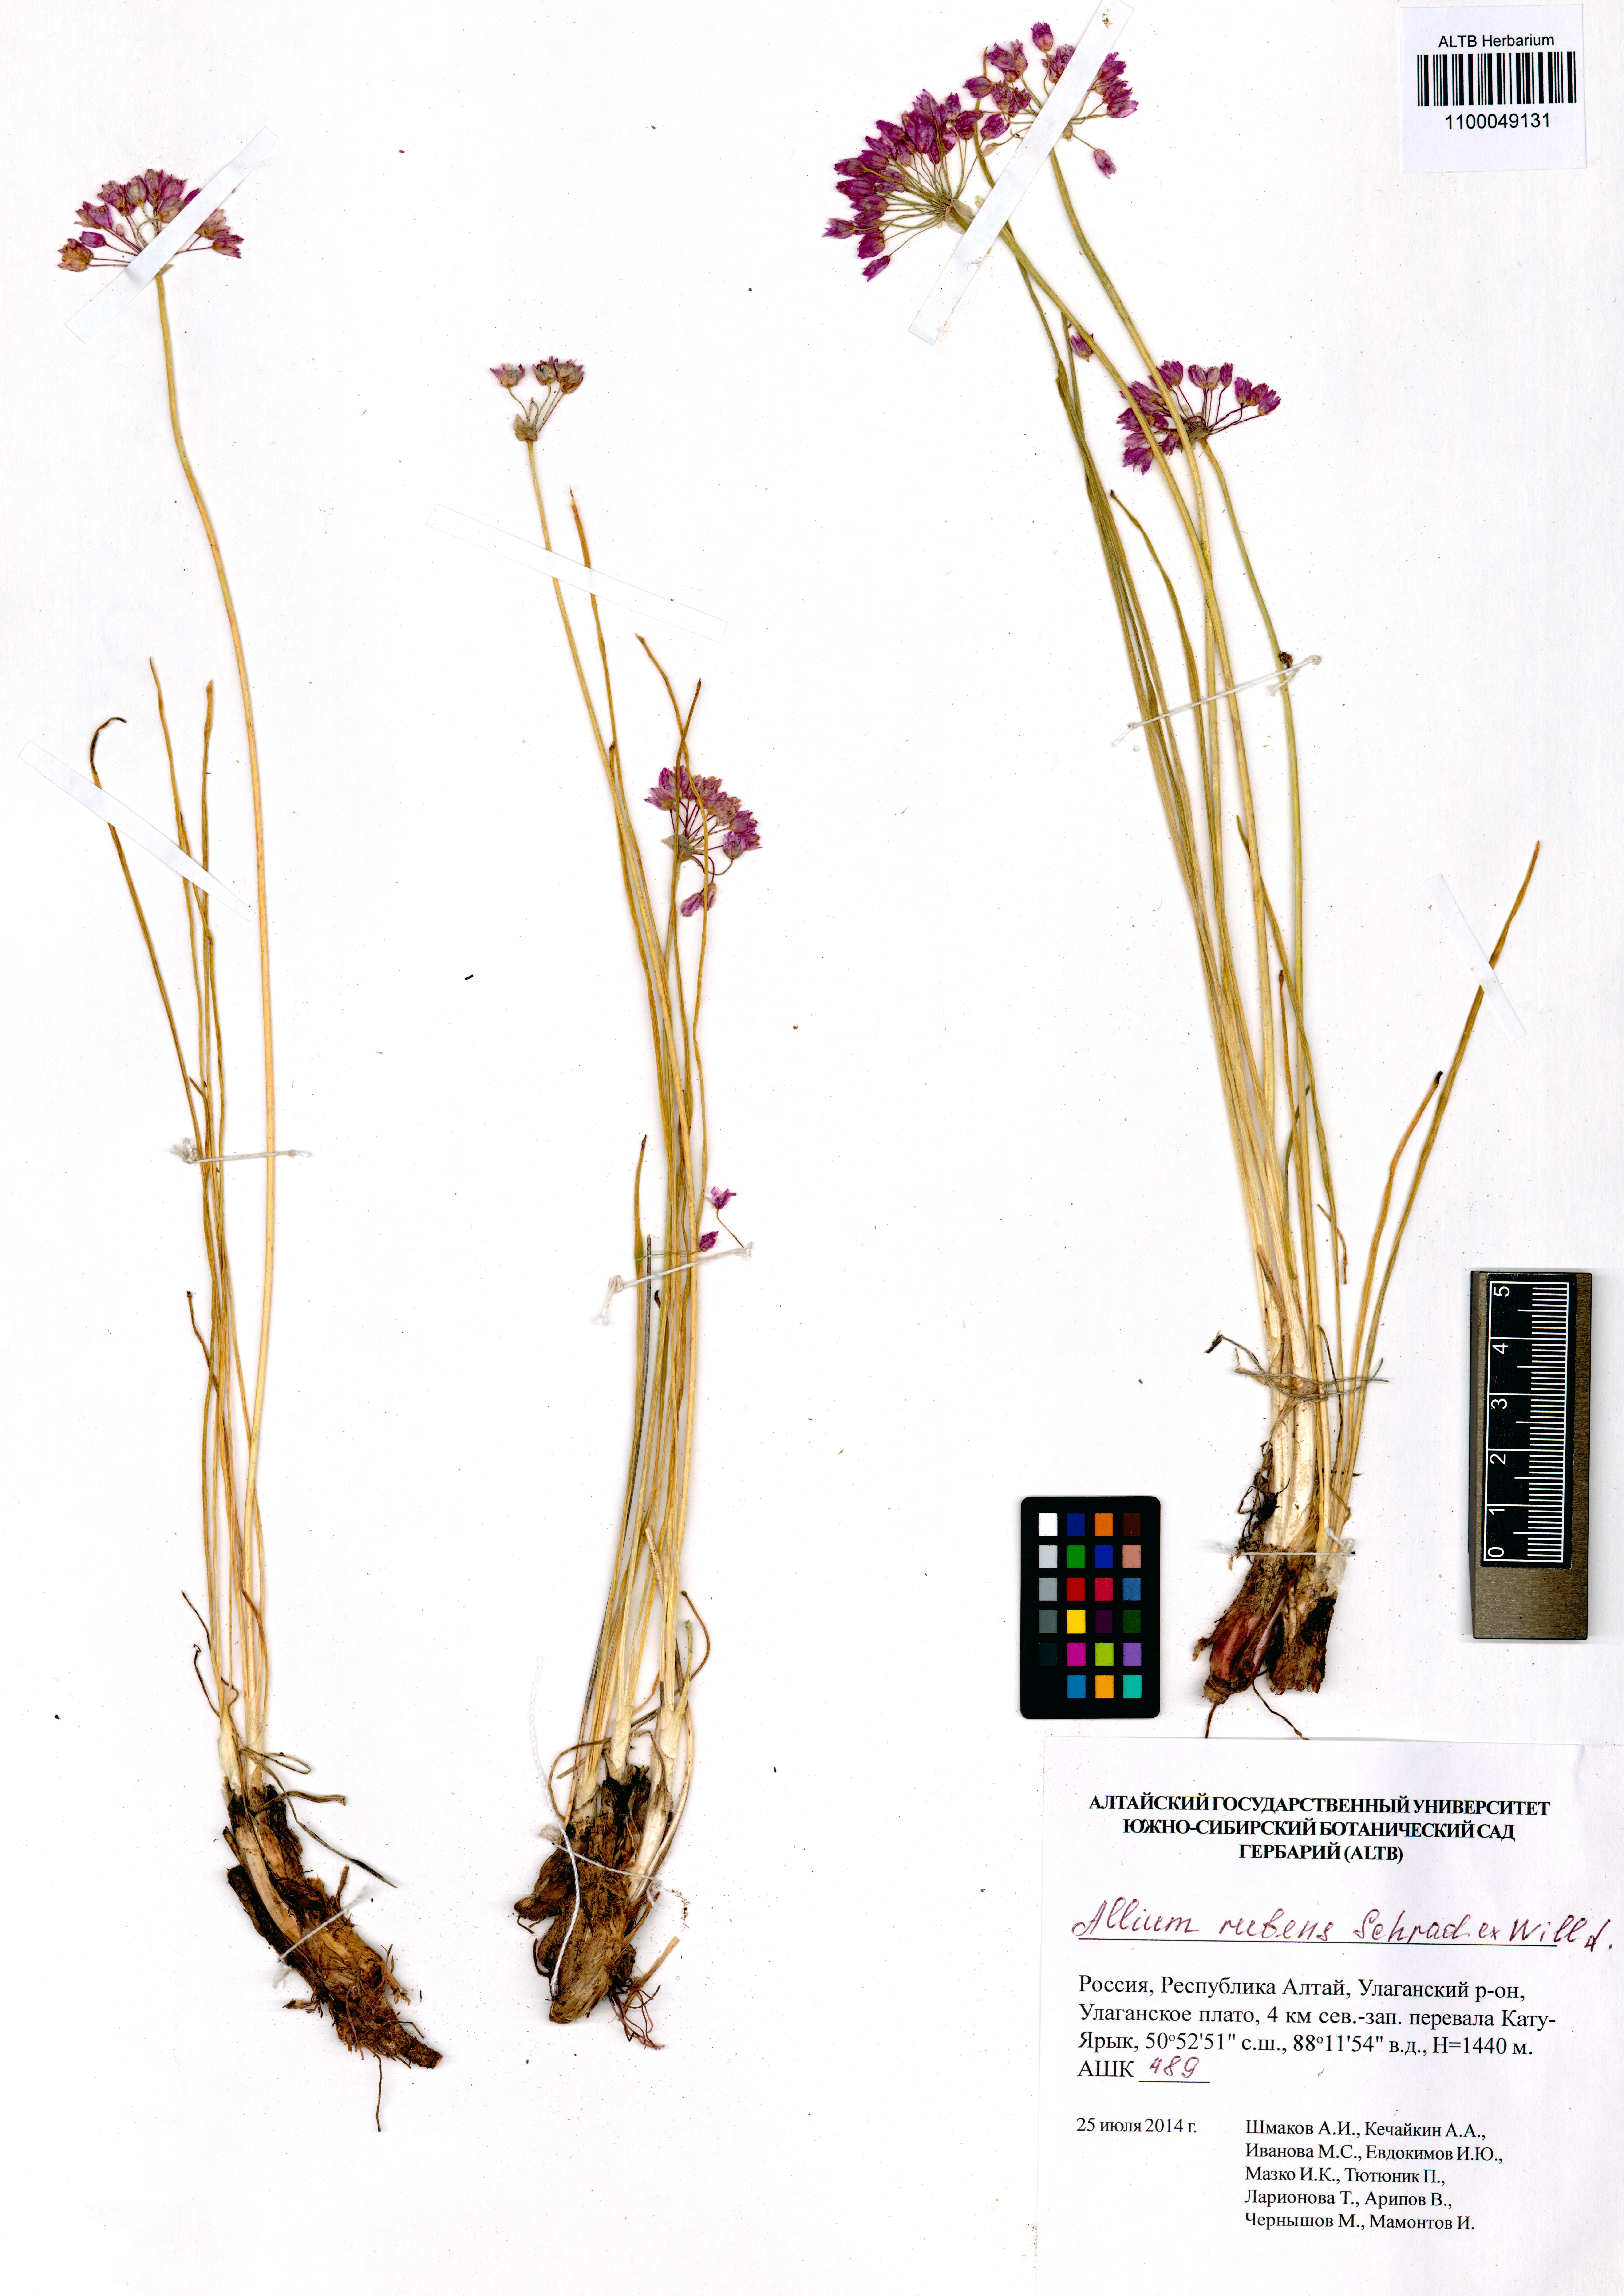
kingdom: Plantae
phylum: Tracheophyta
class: Liliopsida
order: Asparagales
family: Amaryllidaceae
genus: Allium
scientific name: Allium rubens
